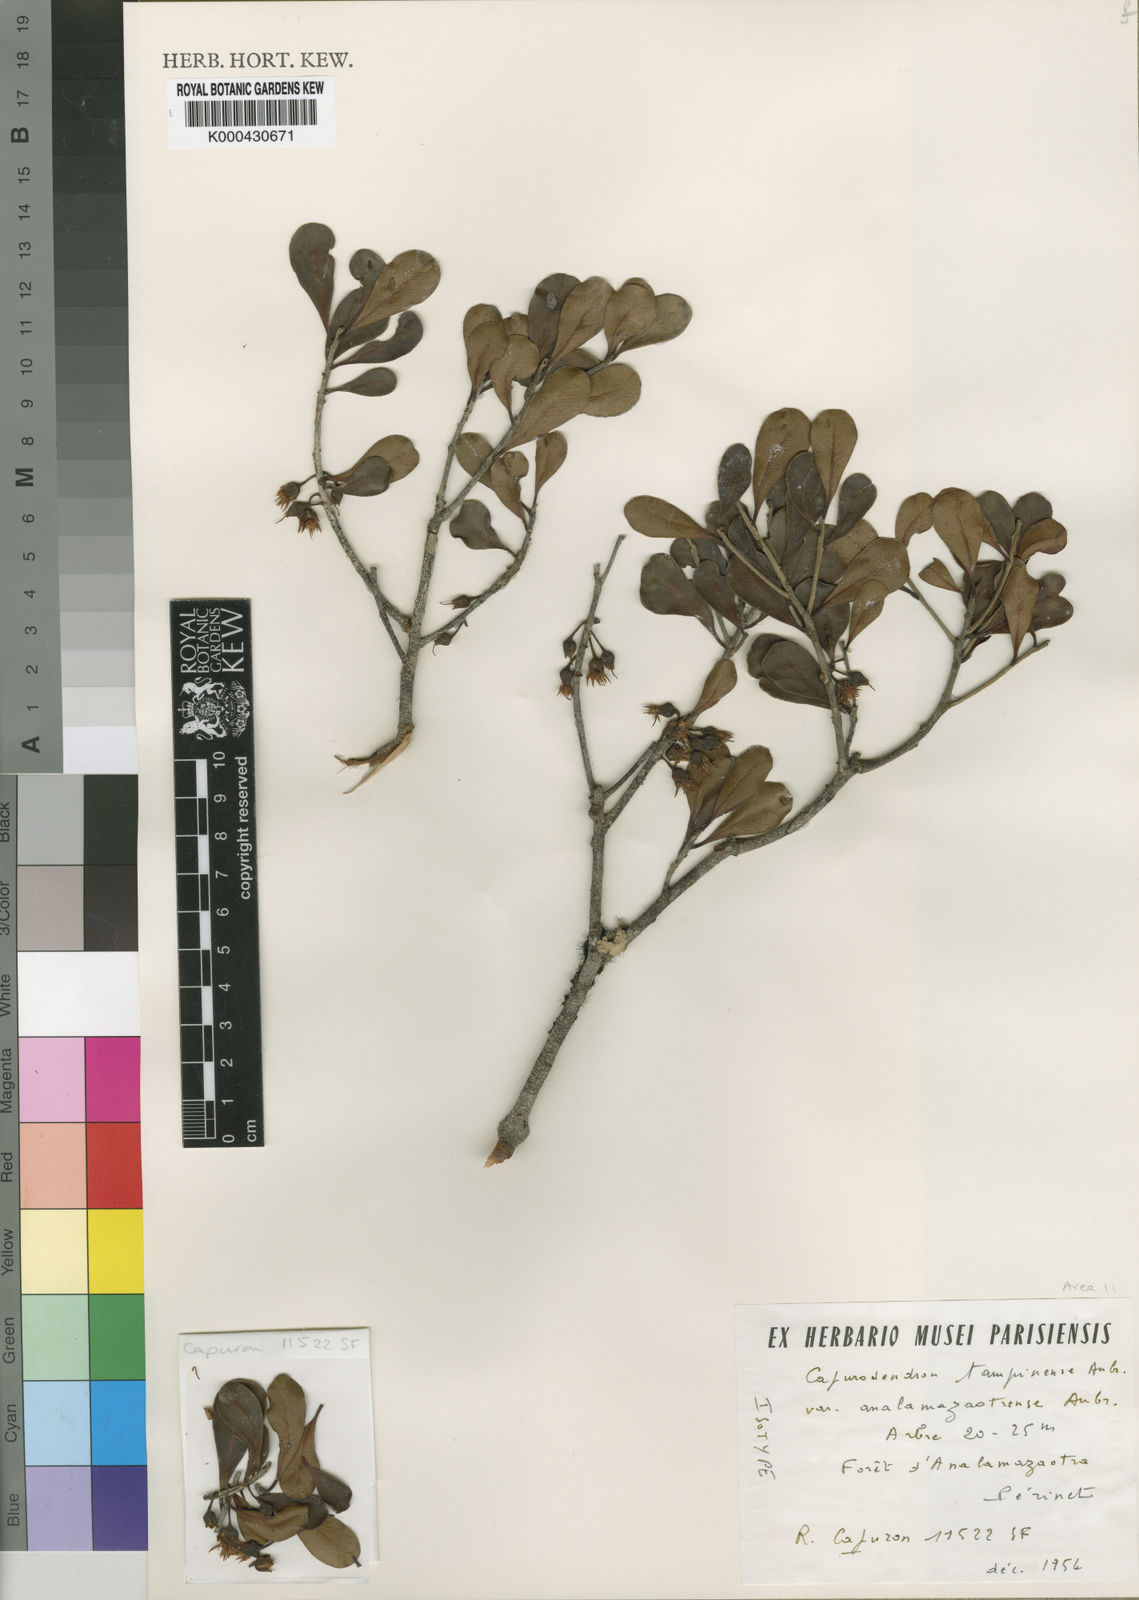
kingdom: Plantae
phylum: Tracheophyta
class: Magnoliopsida
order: Ericales
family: Sapotaceae
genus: Capurodendron
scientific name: Capurodendron
